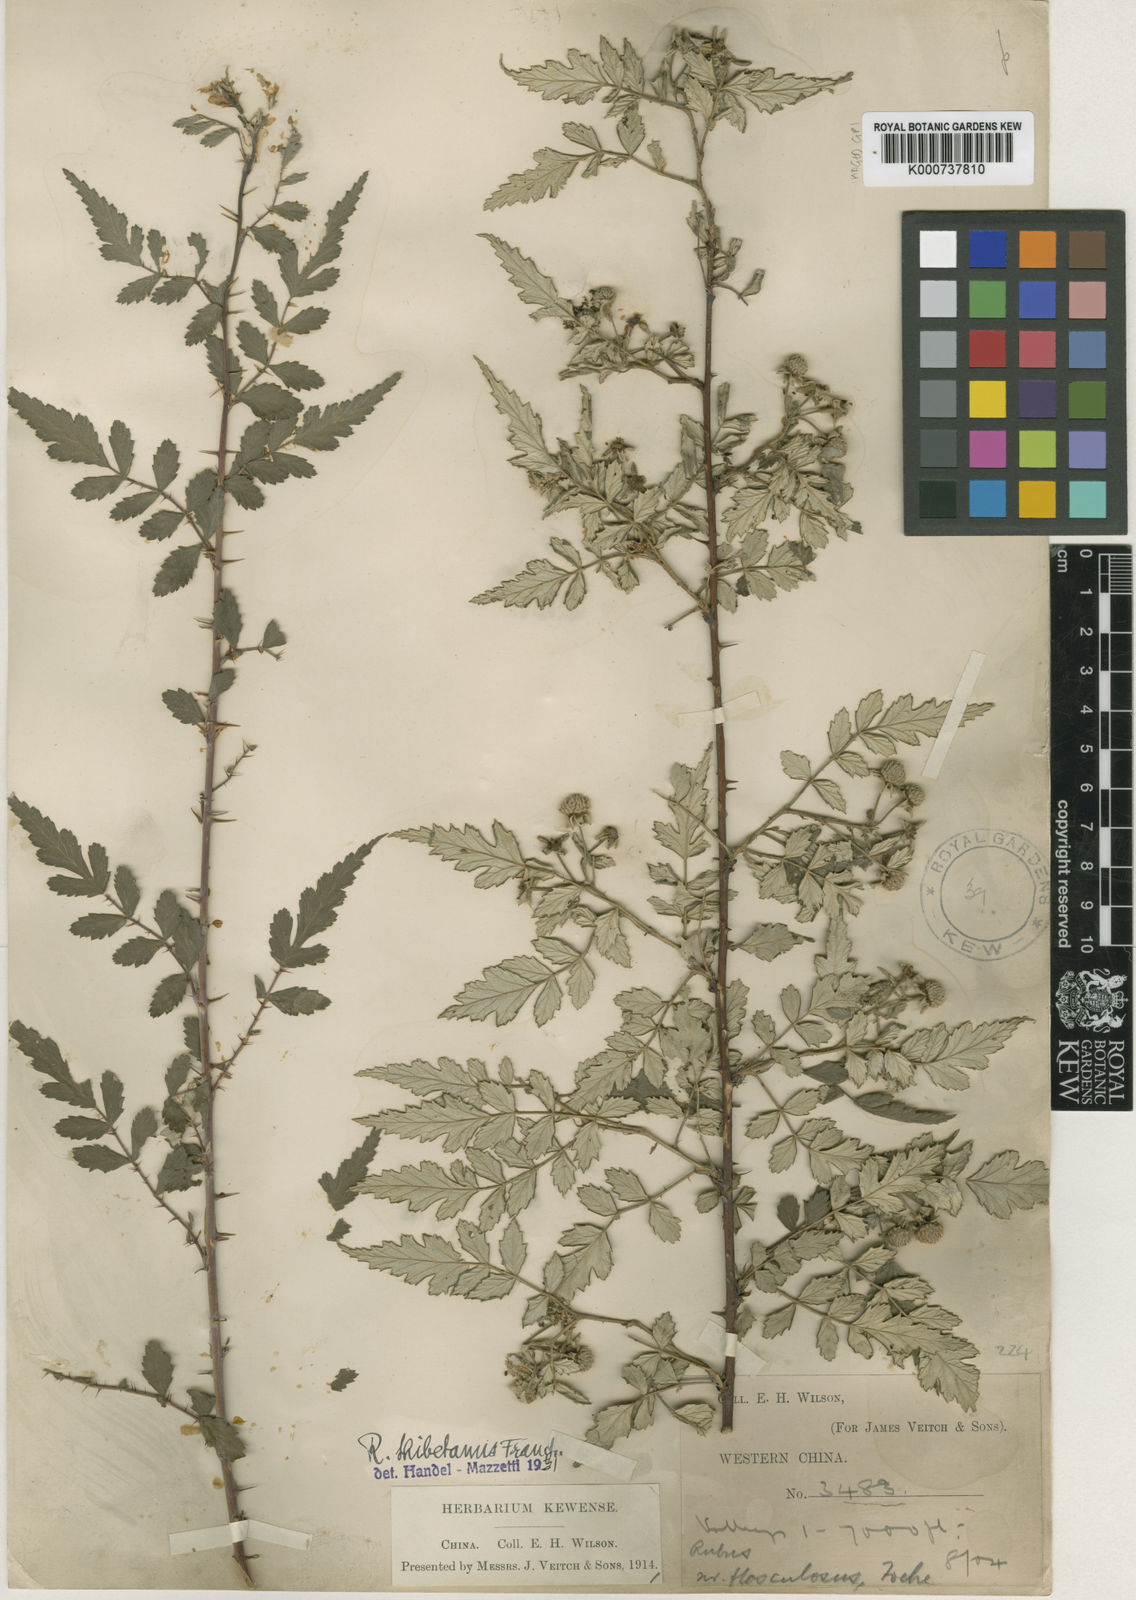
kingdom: Plantae
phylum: Tracheophyta
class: Magnoliopsida
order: Rosales
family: Rosaceae
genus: Rubus
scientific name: Rubus thibetanus
